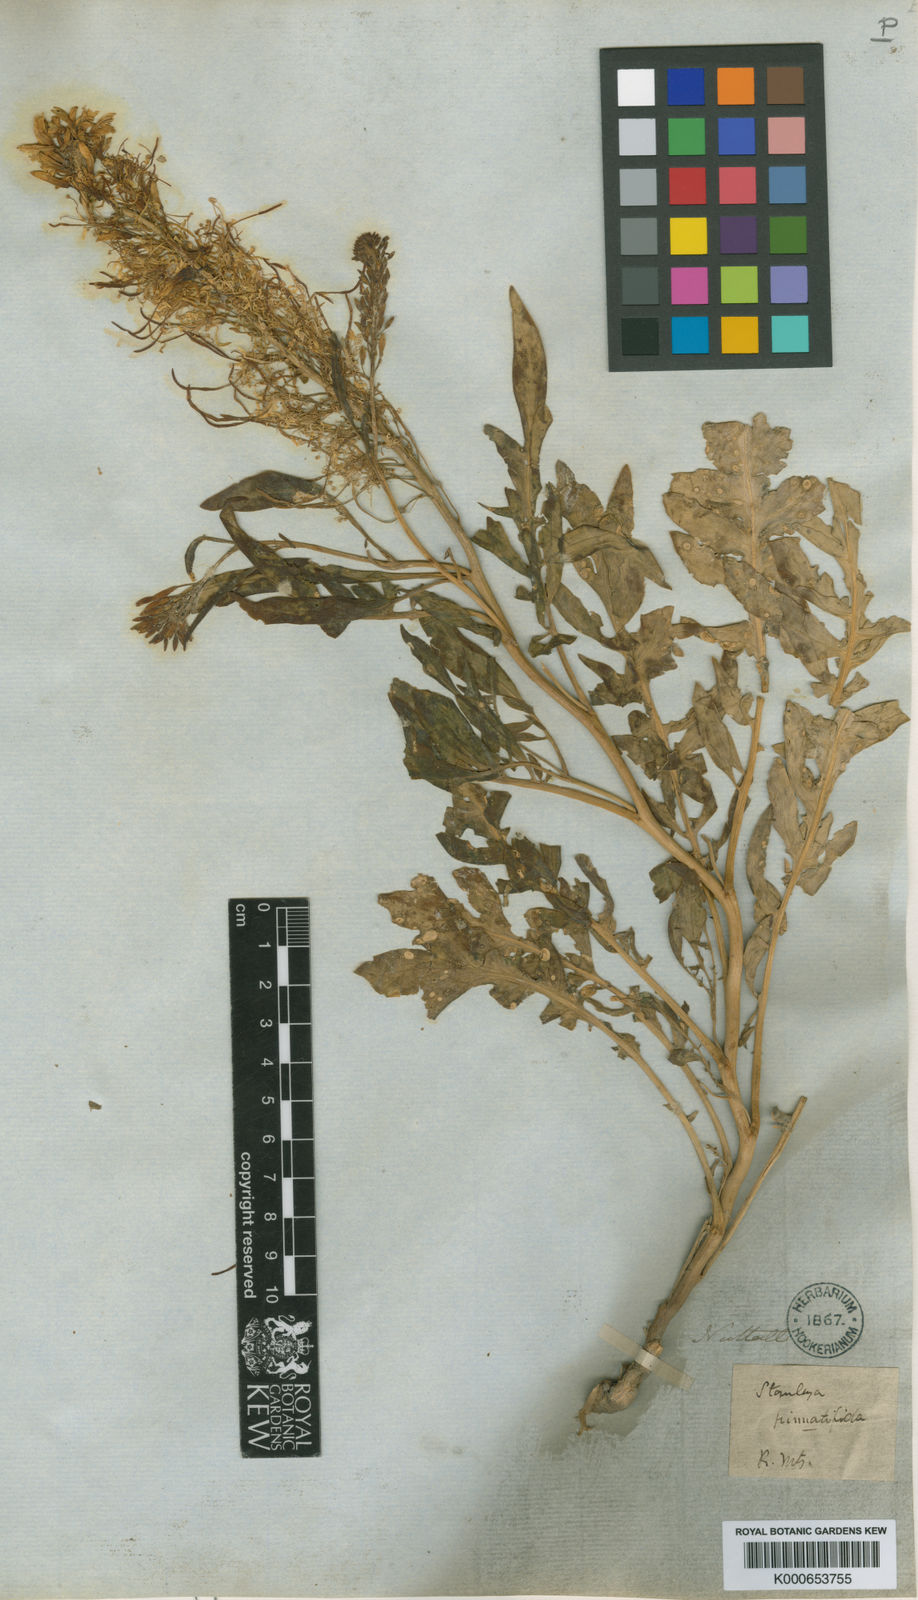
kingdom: Plantae
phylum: Tracheophyta
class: Magnoliopsida
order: Brassicales
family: Brassicaceae
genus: Stanleya
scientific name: Stanleya pinnata
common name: Prince's-plume
